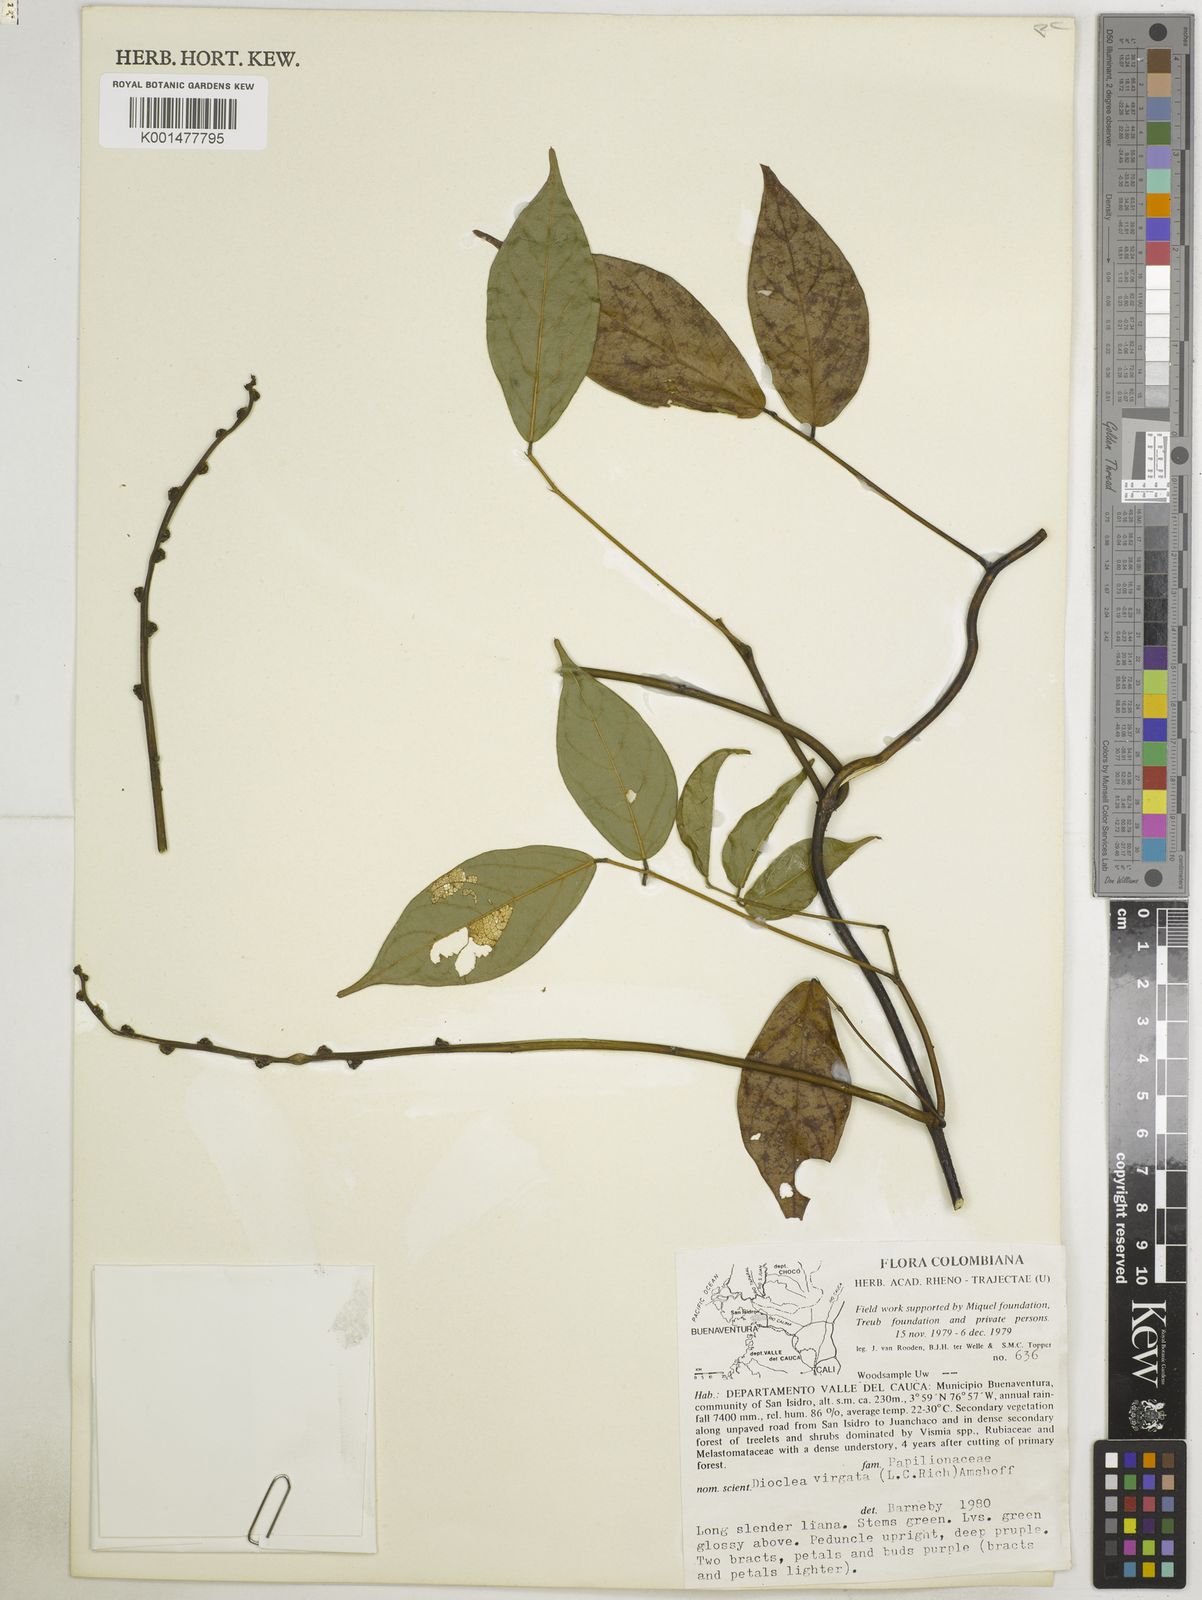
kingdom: Plantae
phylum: Tracheophyta
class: Magnoliopsida
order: Fabales
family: Fabaceae
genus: Dioclea
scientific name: Dioclea virgata
